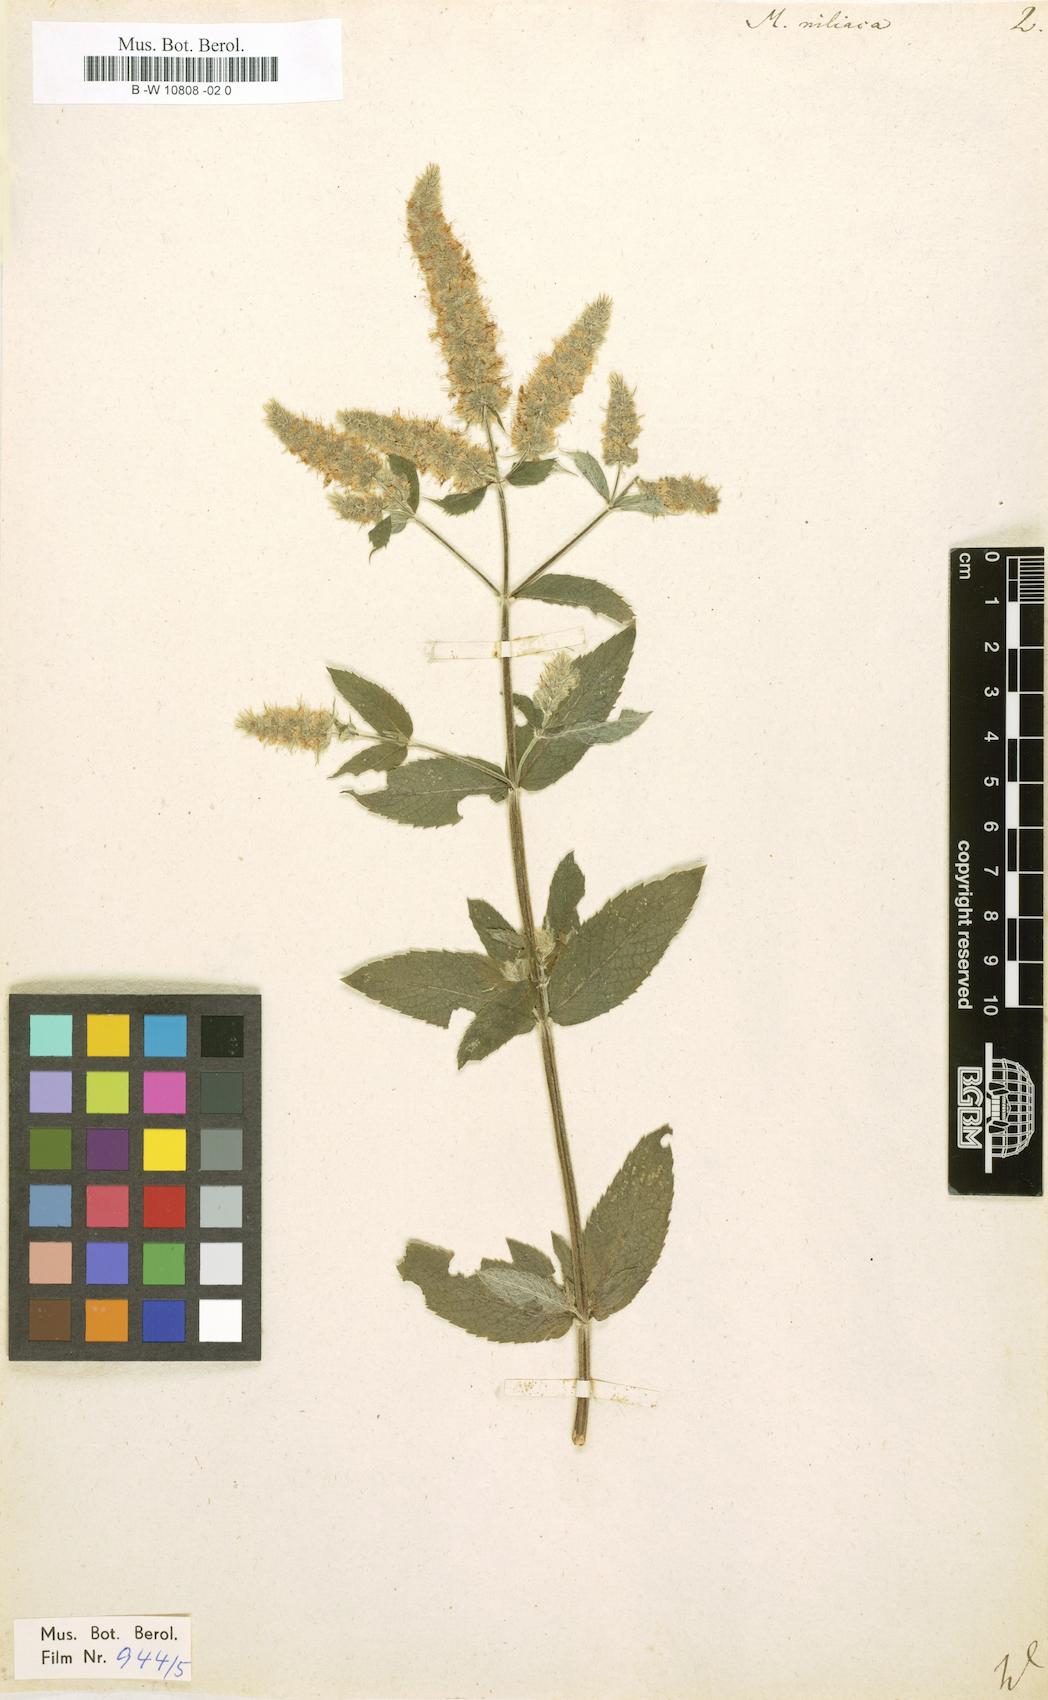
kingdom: Plantae
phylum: Tracheophyta
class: Magnoliopsida
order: Lamiales
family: Lamiaceae
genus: Mentha
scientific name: Mentha rotundifolia
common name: Bigleaf mint
